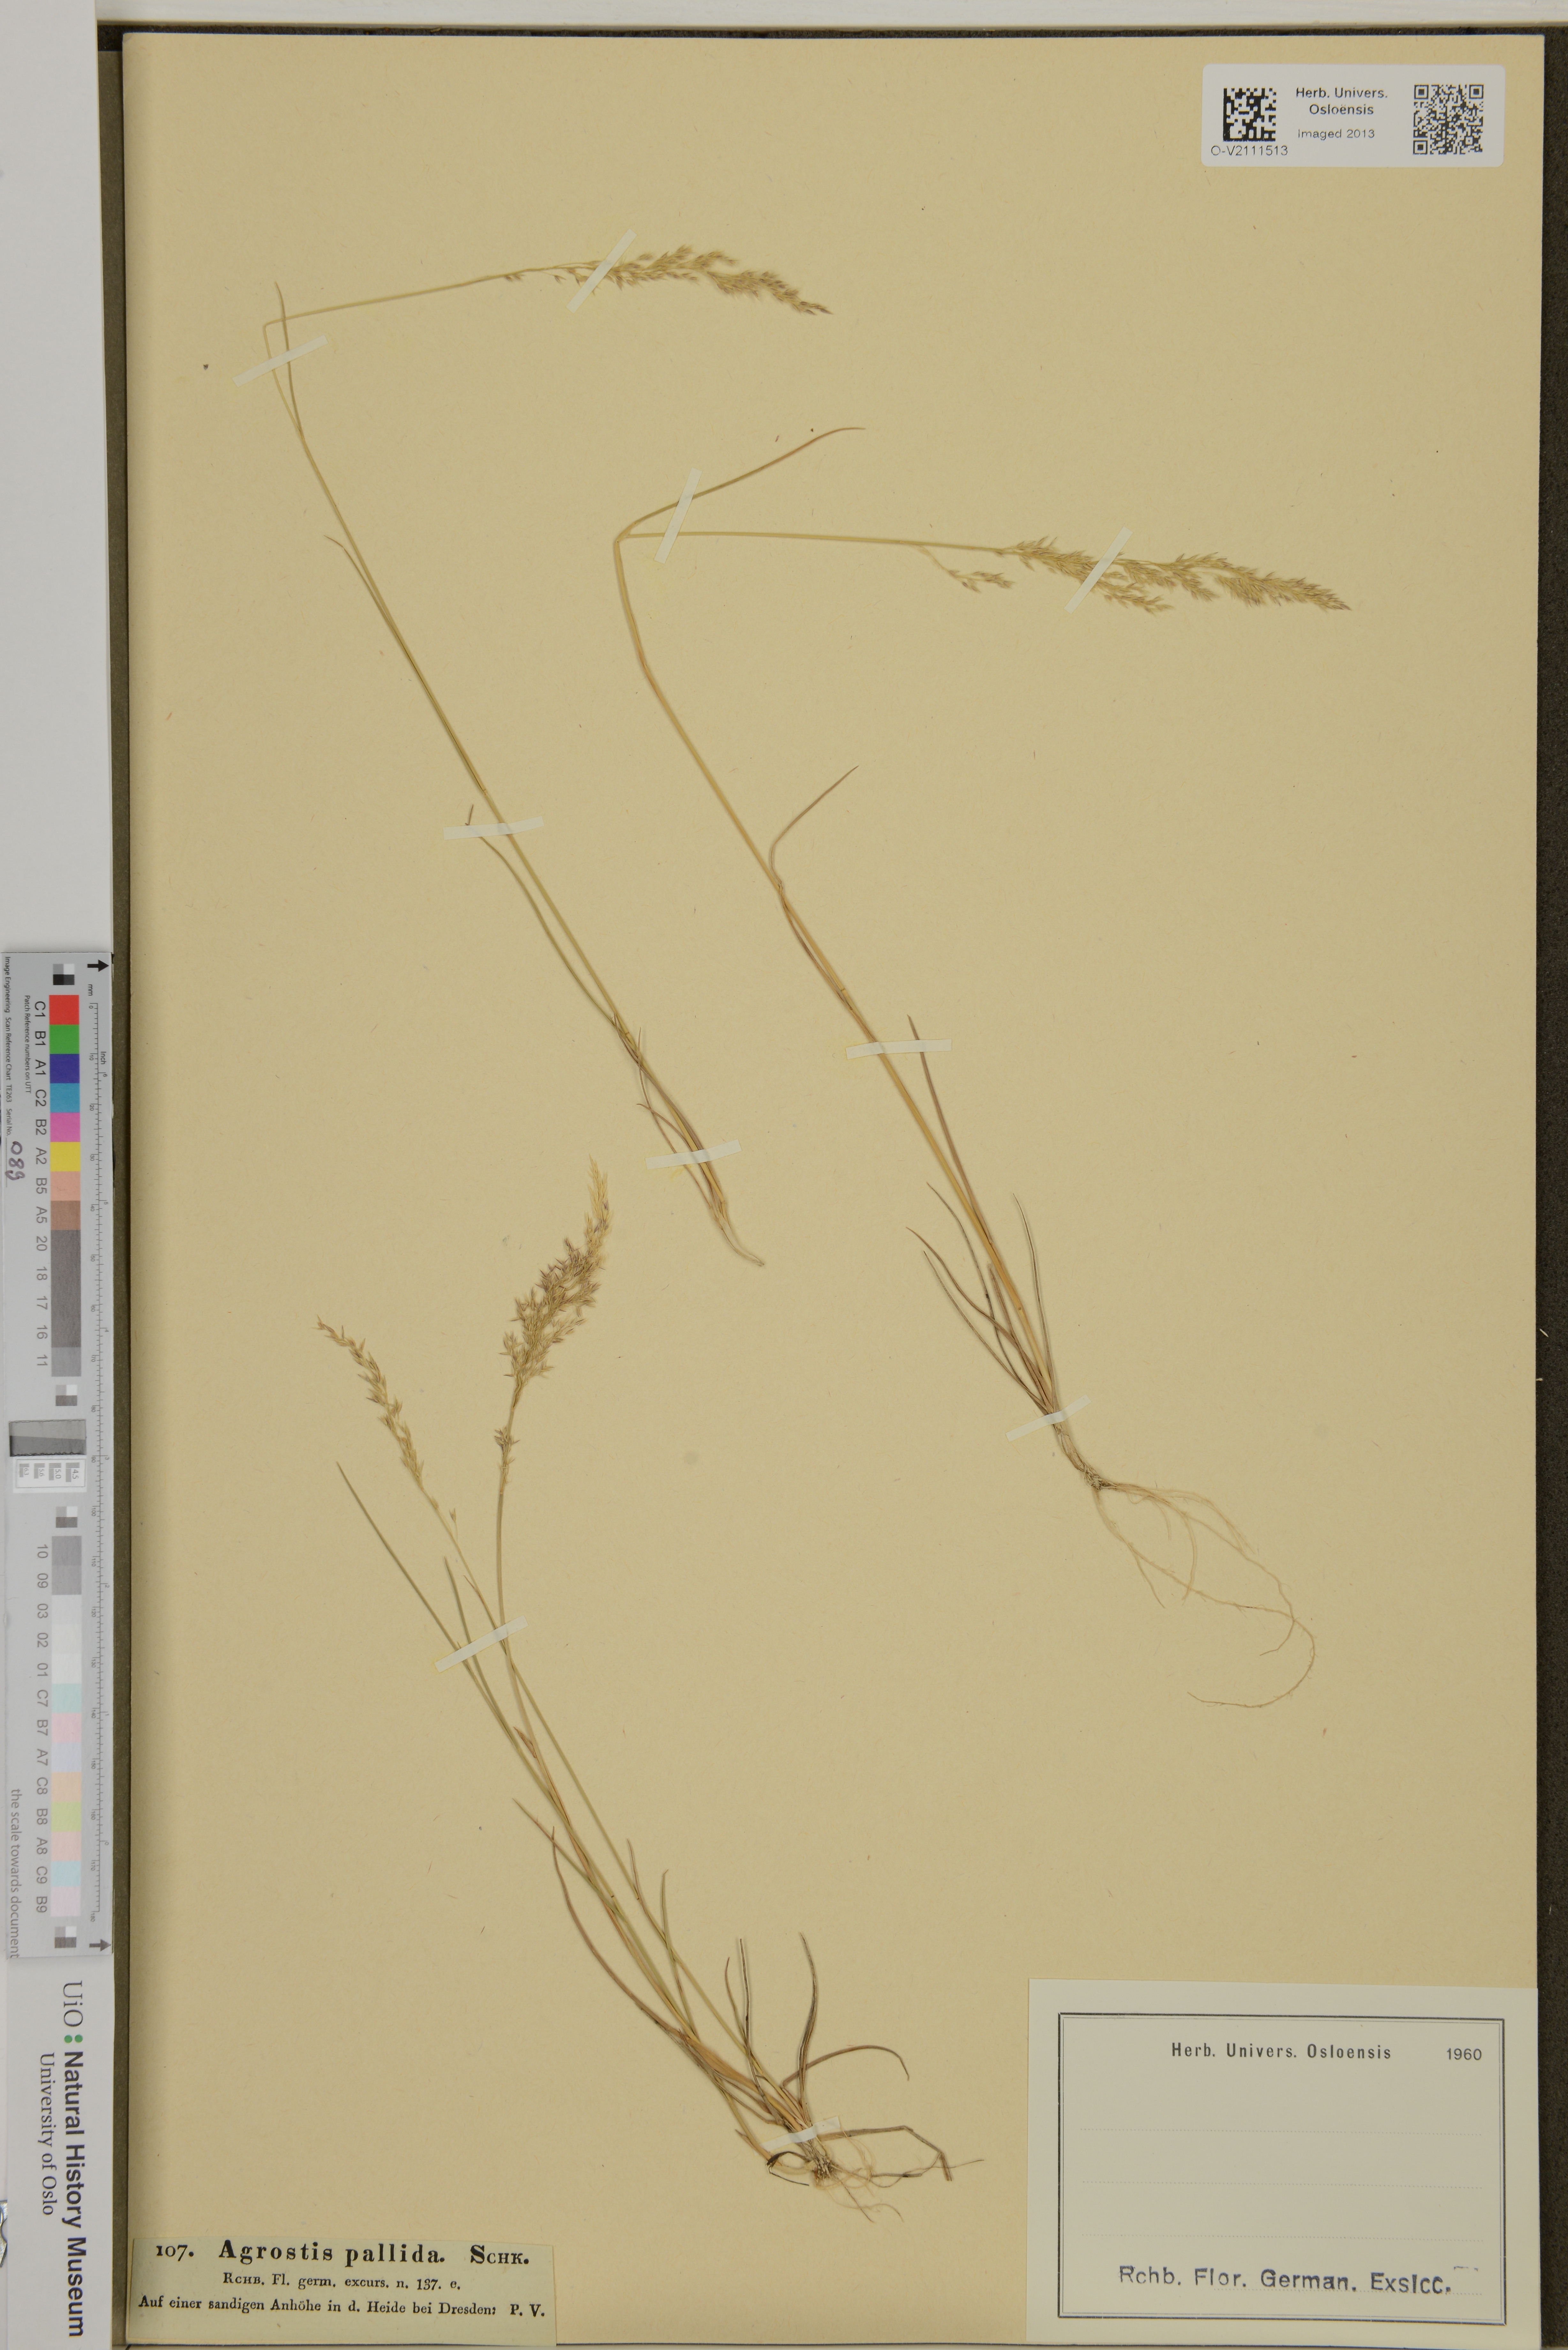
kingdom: Plantae
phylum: Tracheophyta
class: Liliopsida
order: Poales
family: Poaceae
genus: Agrostis
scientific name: Agrostis
